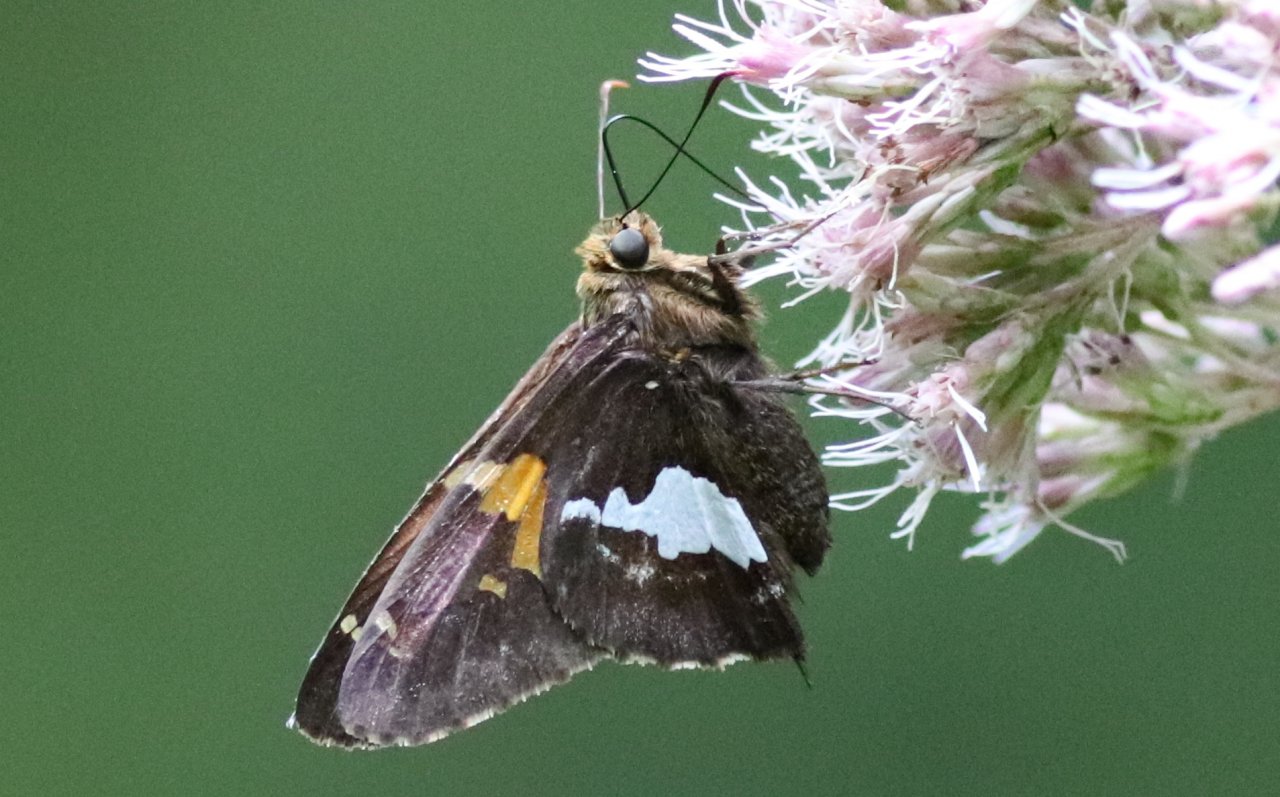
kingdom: Animalia
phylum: Arthropoda
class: Insecta
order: Lepidoptera
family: Hesperiidae
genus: Epargyreus
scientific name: Epargyreus clarus
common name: Silver-spotted Skipper
